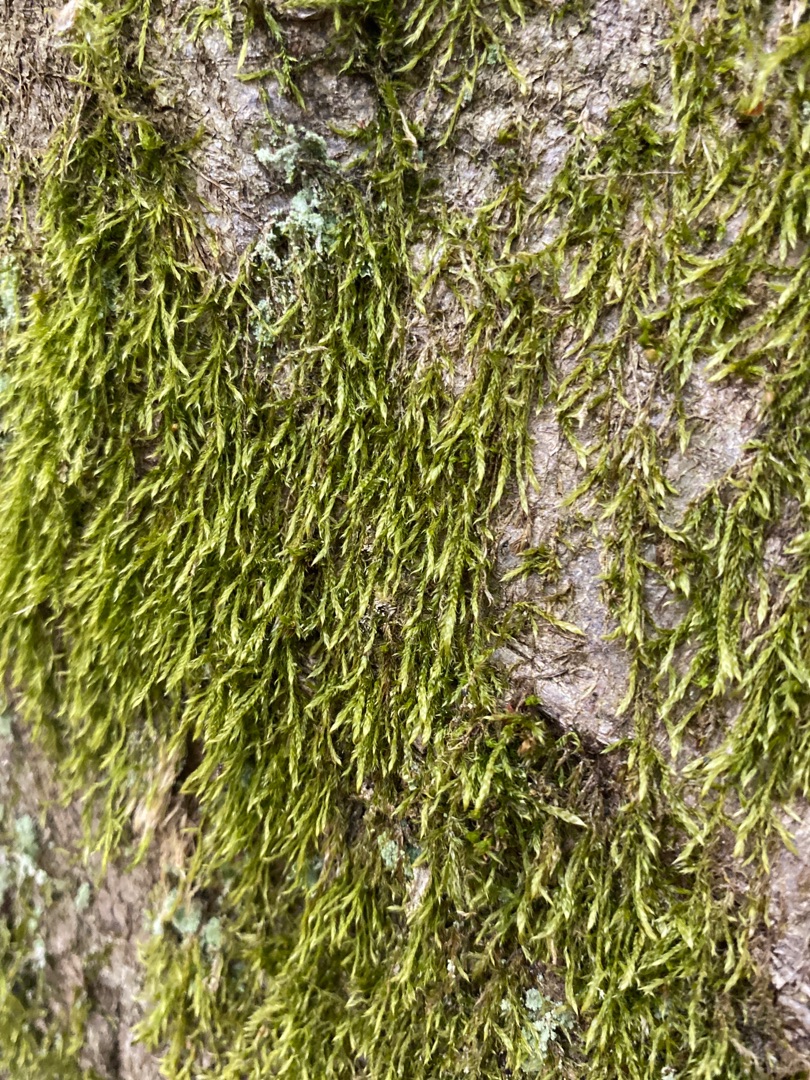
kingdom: Plantae
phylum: Bryophyta
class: Bryopsida
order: Hypnales
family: Hypnaceae
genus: Hypnum
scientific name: Hypnum
